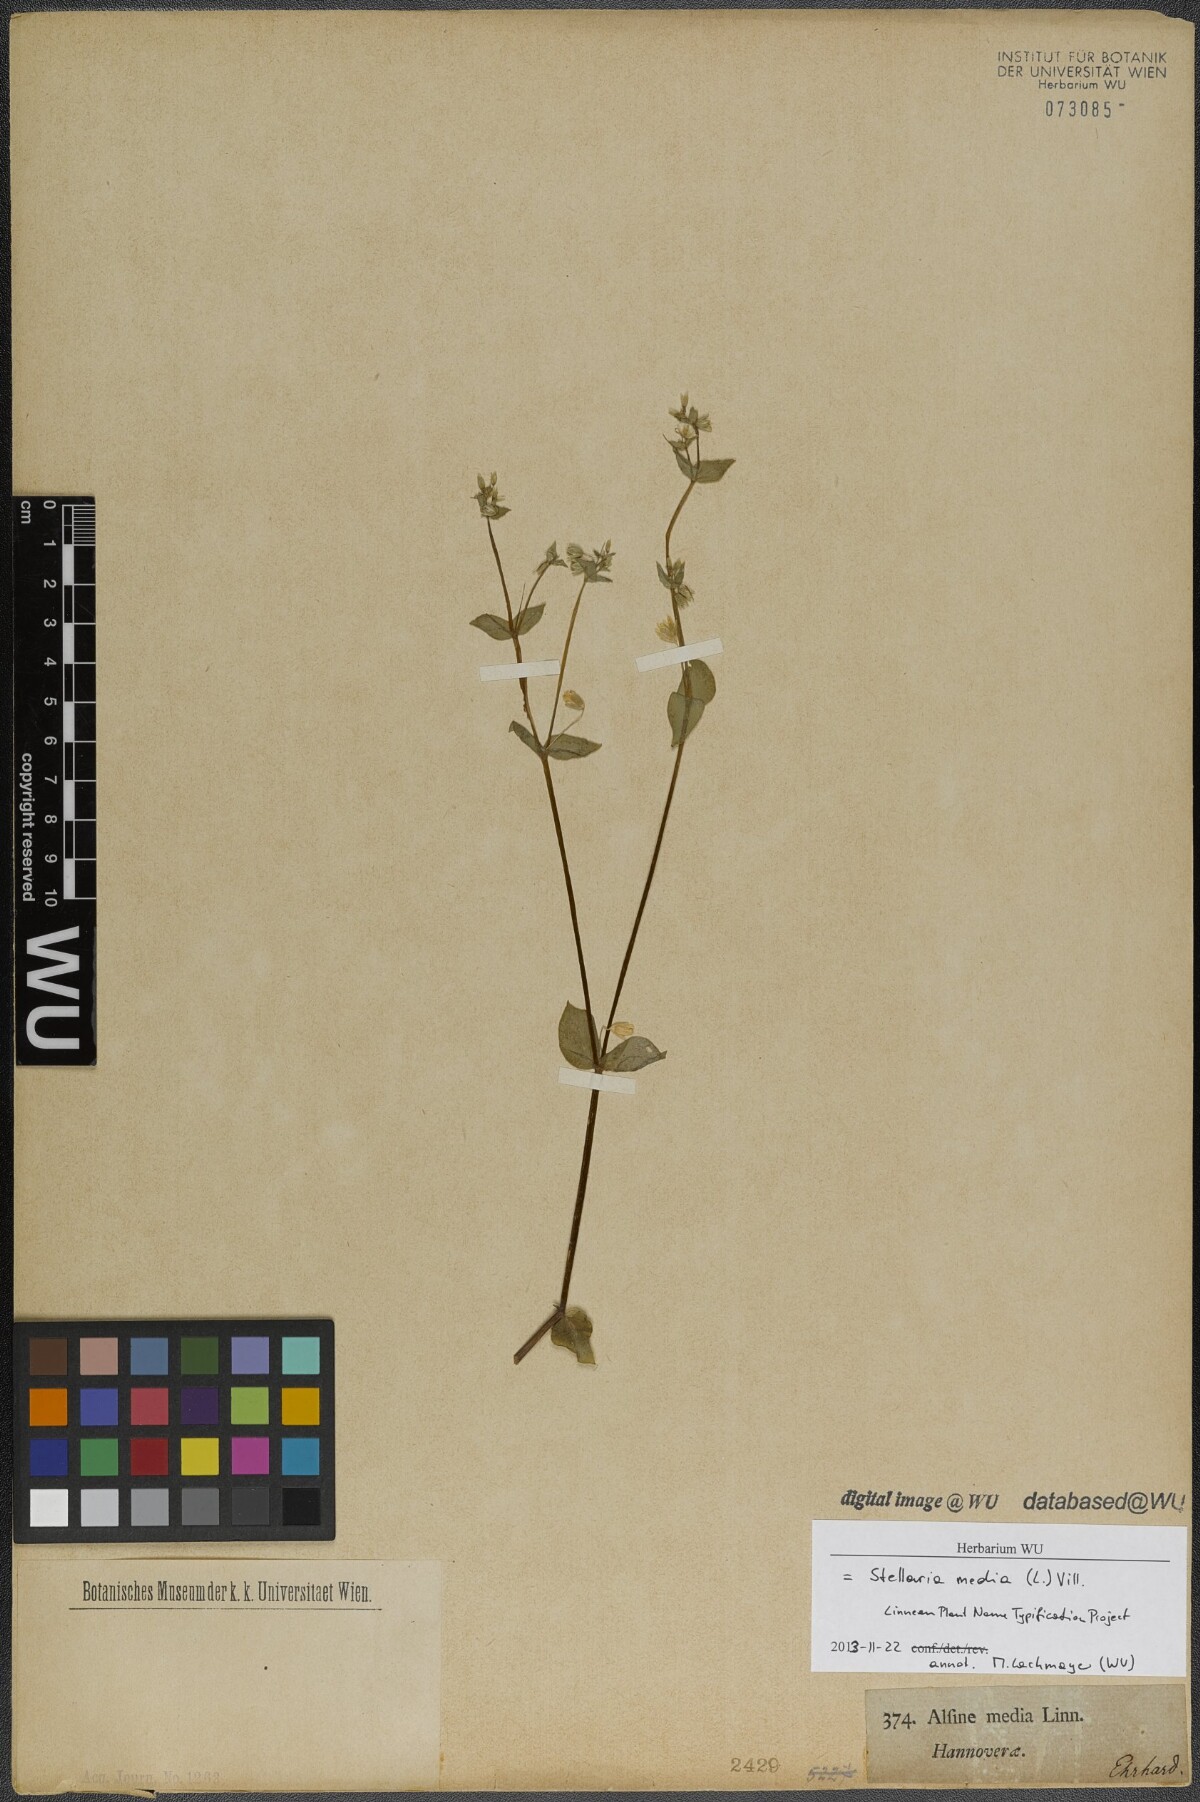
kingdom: Plantae
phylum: Tracheophyta
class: Magnoliopsida
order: Caryophyllales
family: Caryophyllaceae
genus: Stellaria
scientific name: Stellaria media
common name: Common chickweed
